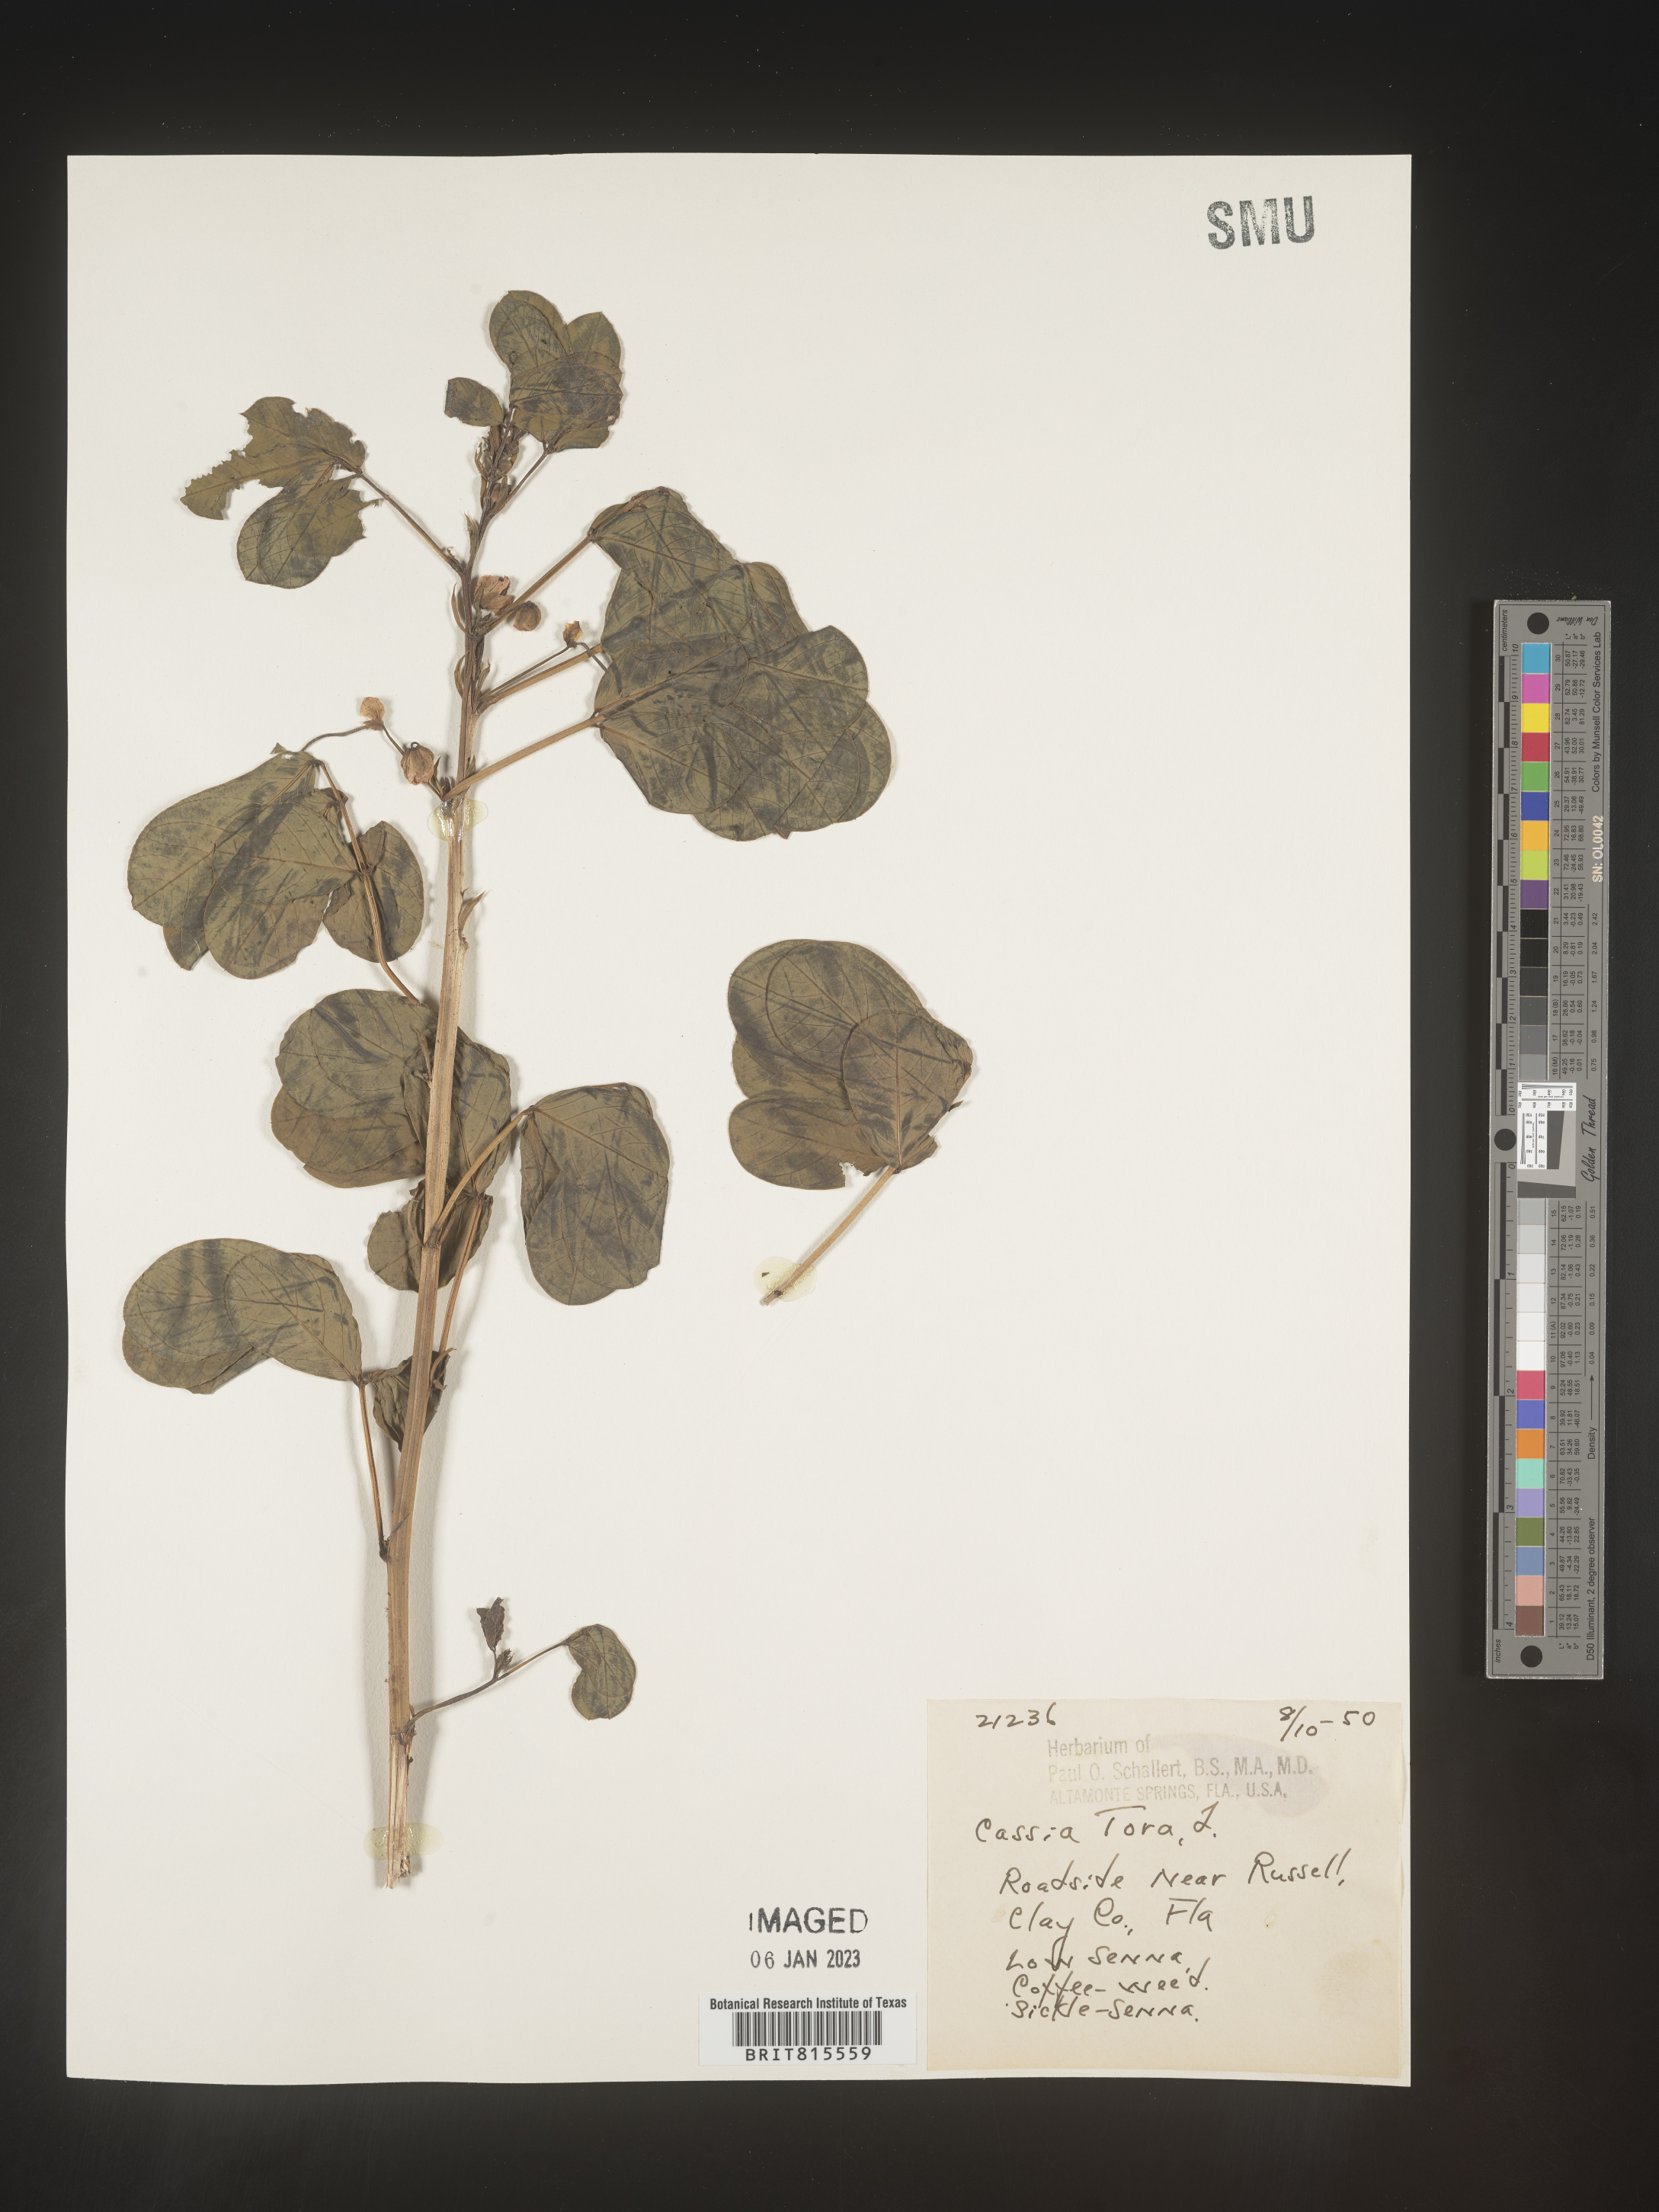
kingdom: Plantae
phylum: Tracheophyta
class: Magnoliopsida
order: Fabales
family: Fabaceae
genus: Senna
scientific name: Senna tora
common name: Sickle senna
